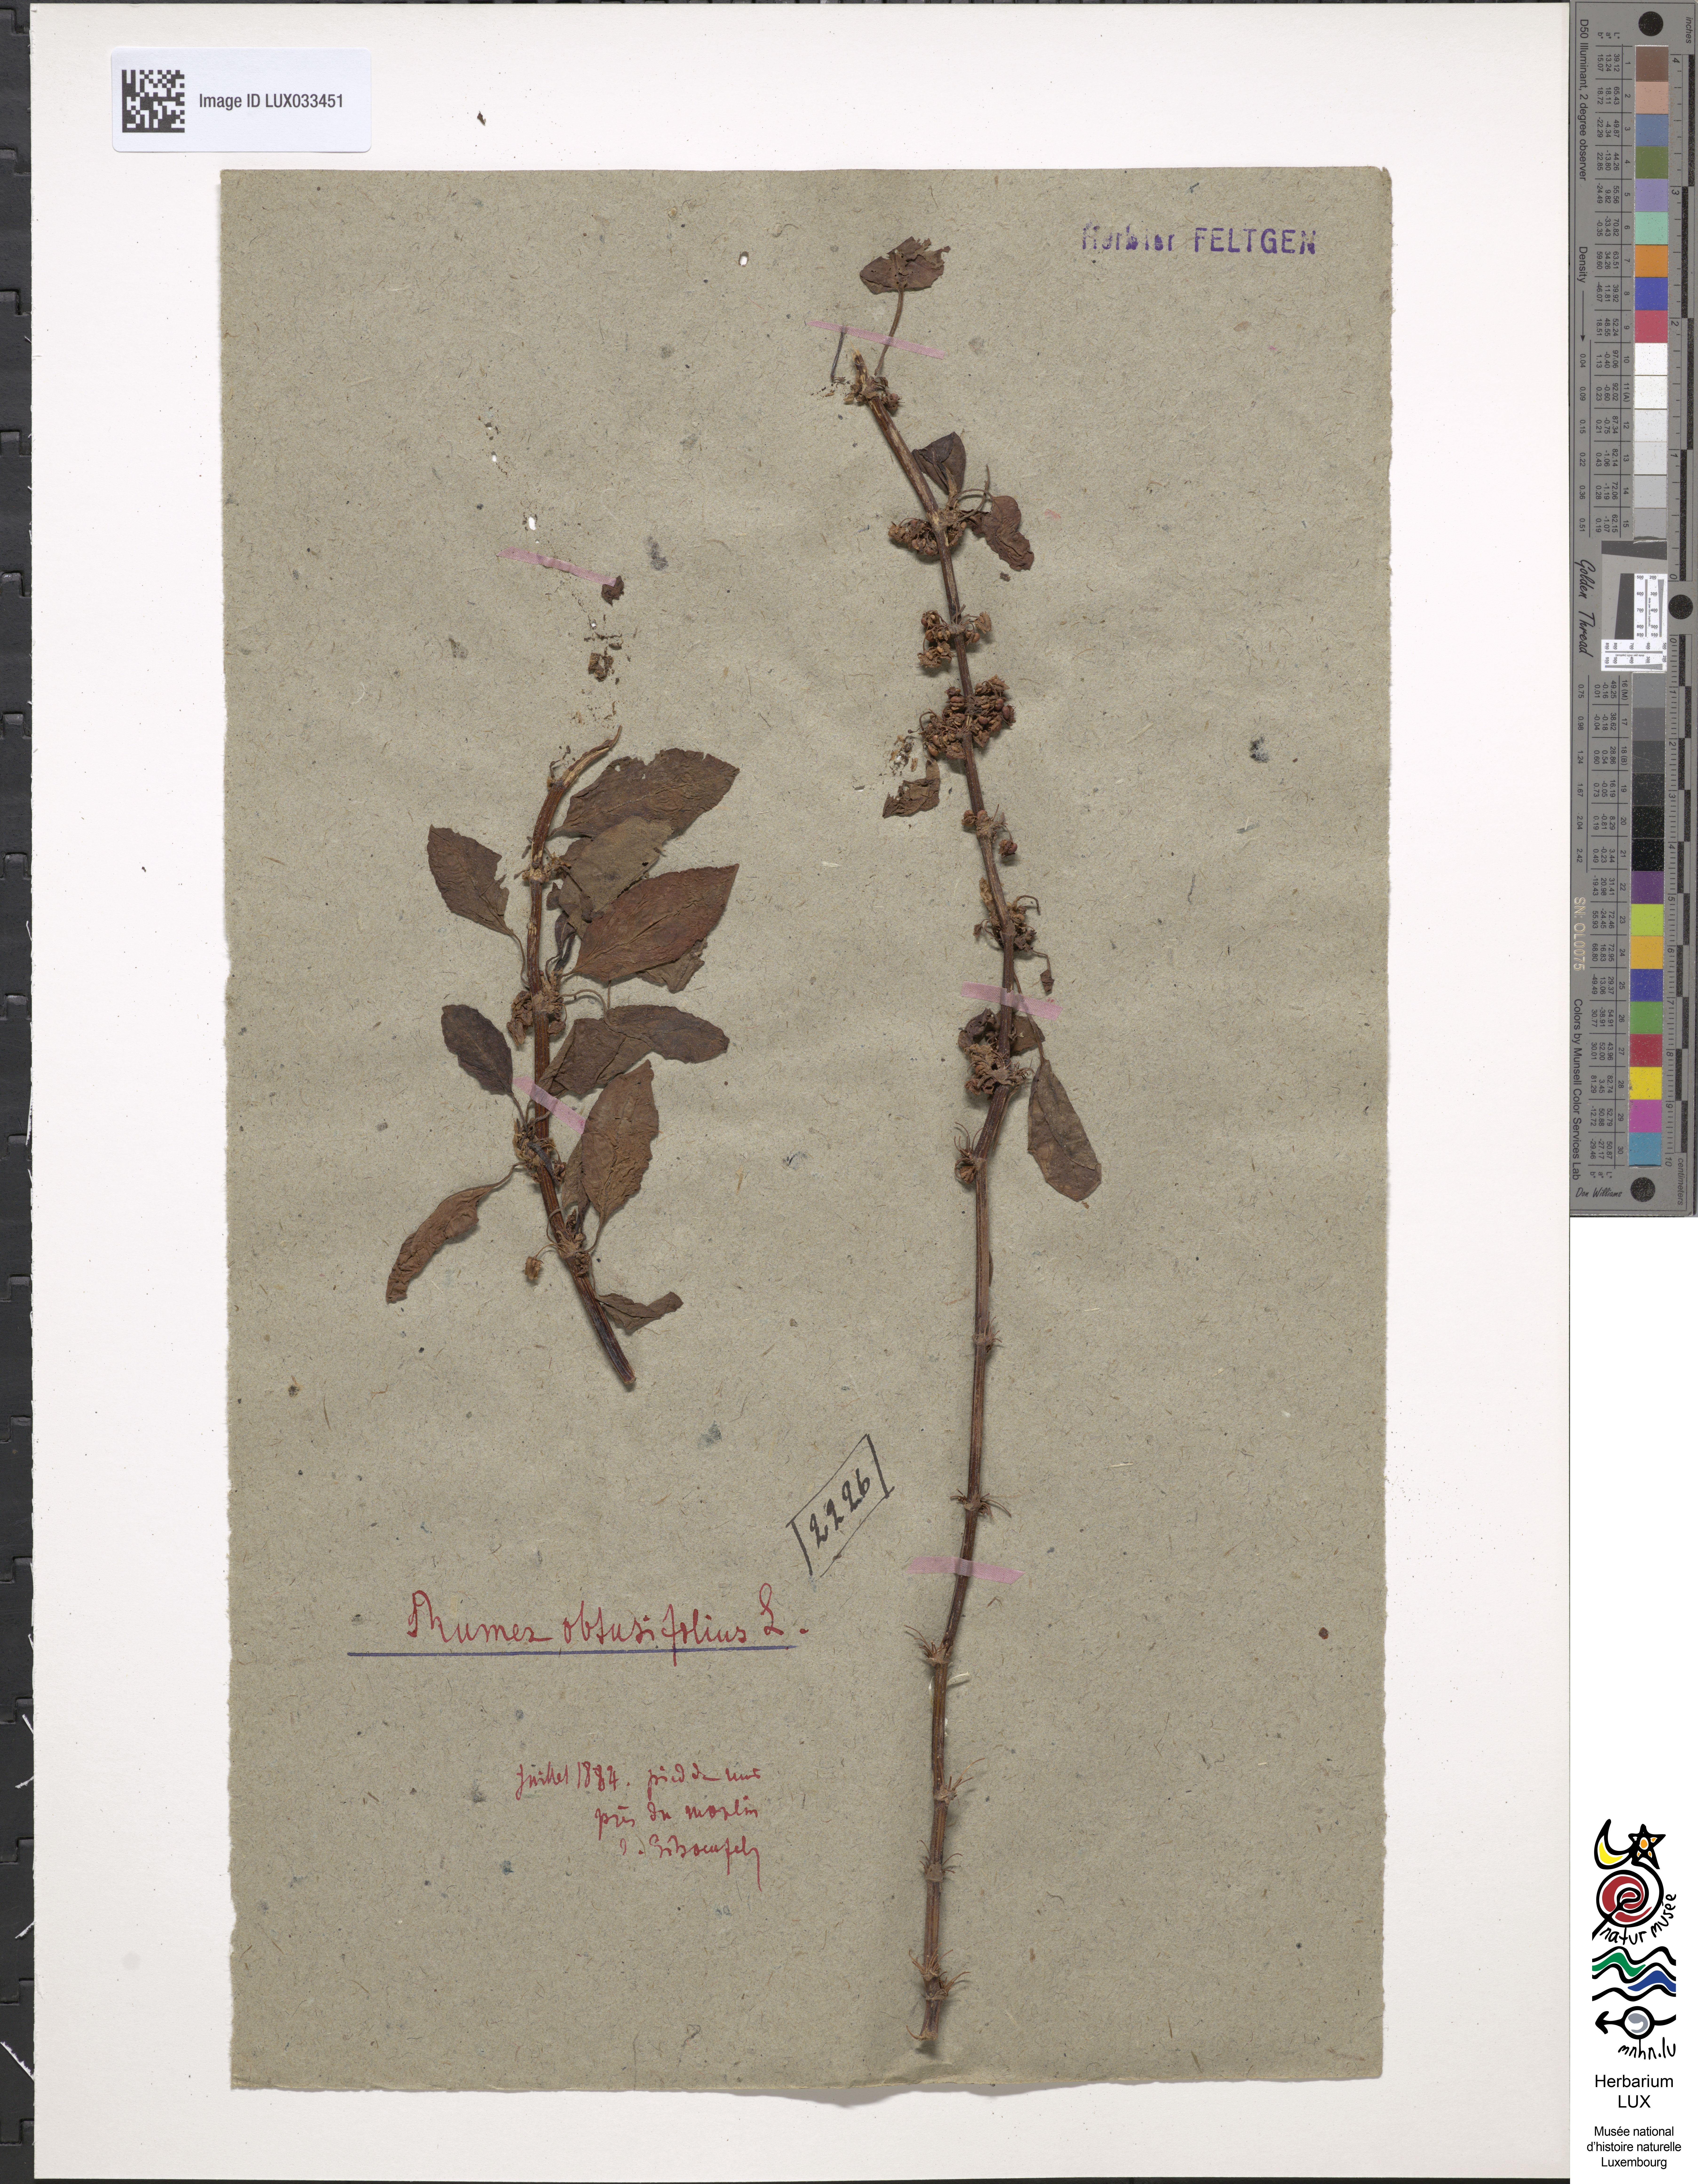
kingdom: Plantae
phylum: Tracheophyta
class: Magnoliopsida
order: Caryophyllales
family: Polygonaceae
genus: Rumex
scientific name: Rumex obtusifolius
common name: Bitter dock
